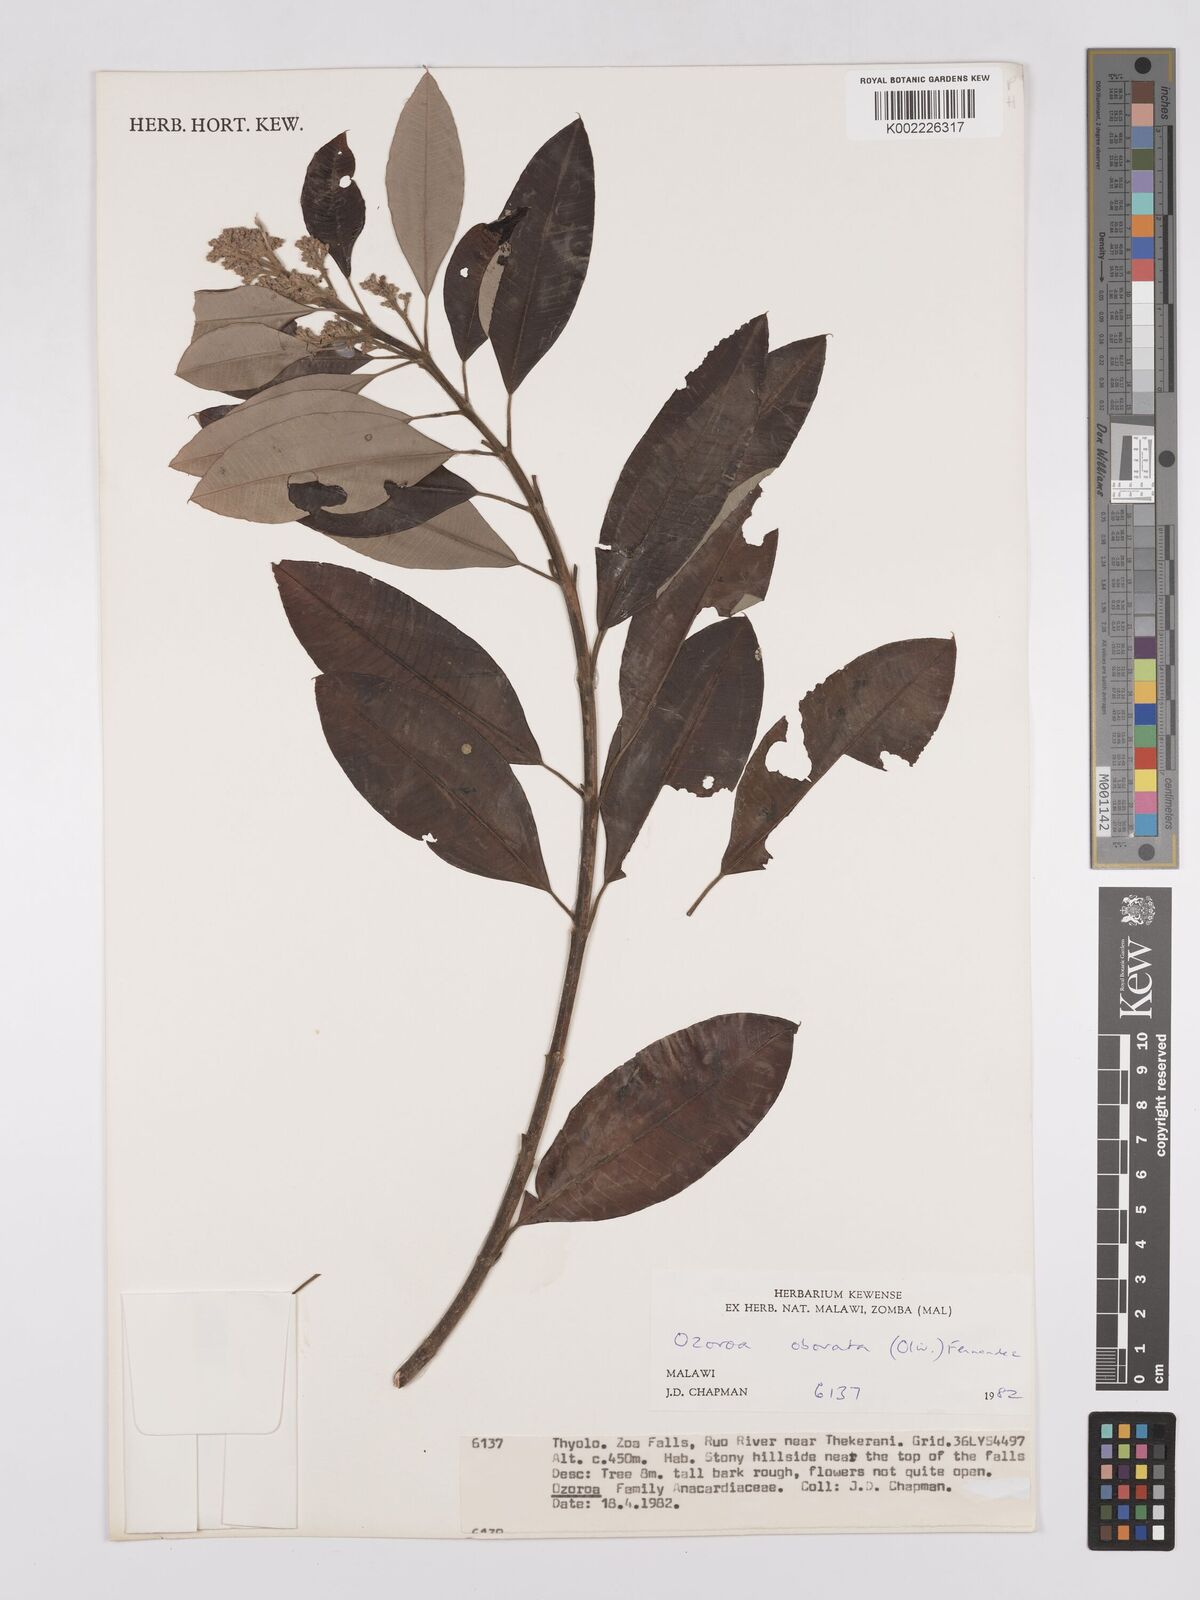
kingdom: Plantae
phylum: Tracheophyta
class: Magnoliopsida
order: Sapindales
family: Anacardiaceae
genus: Ozoroa
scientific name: Ozoroa obovata
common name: Broad-leaved resin tree
